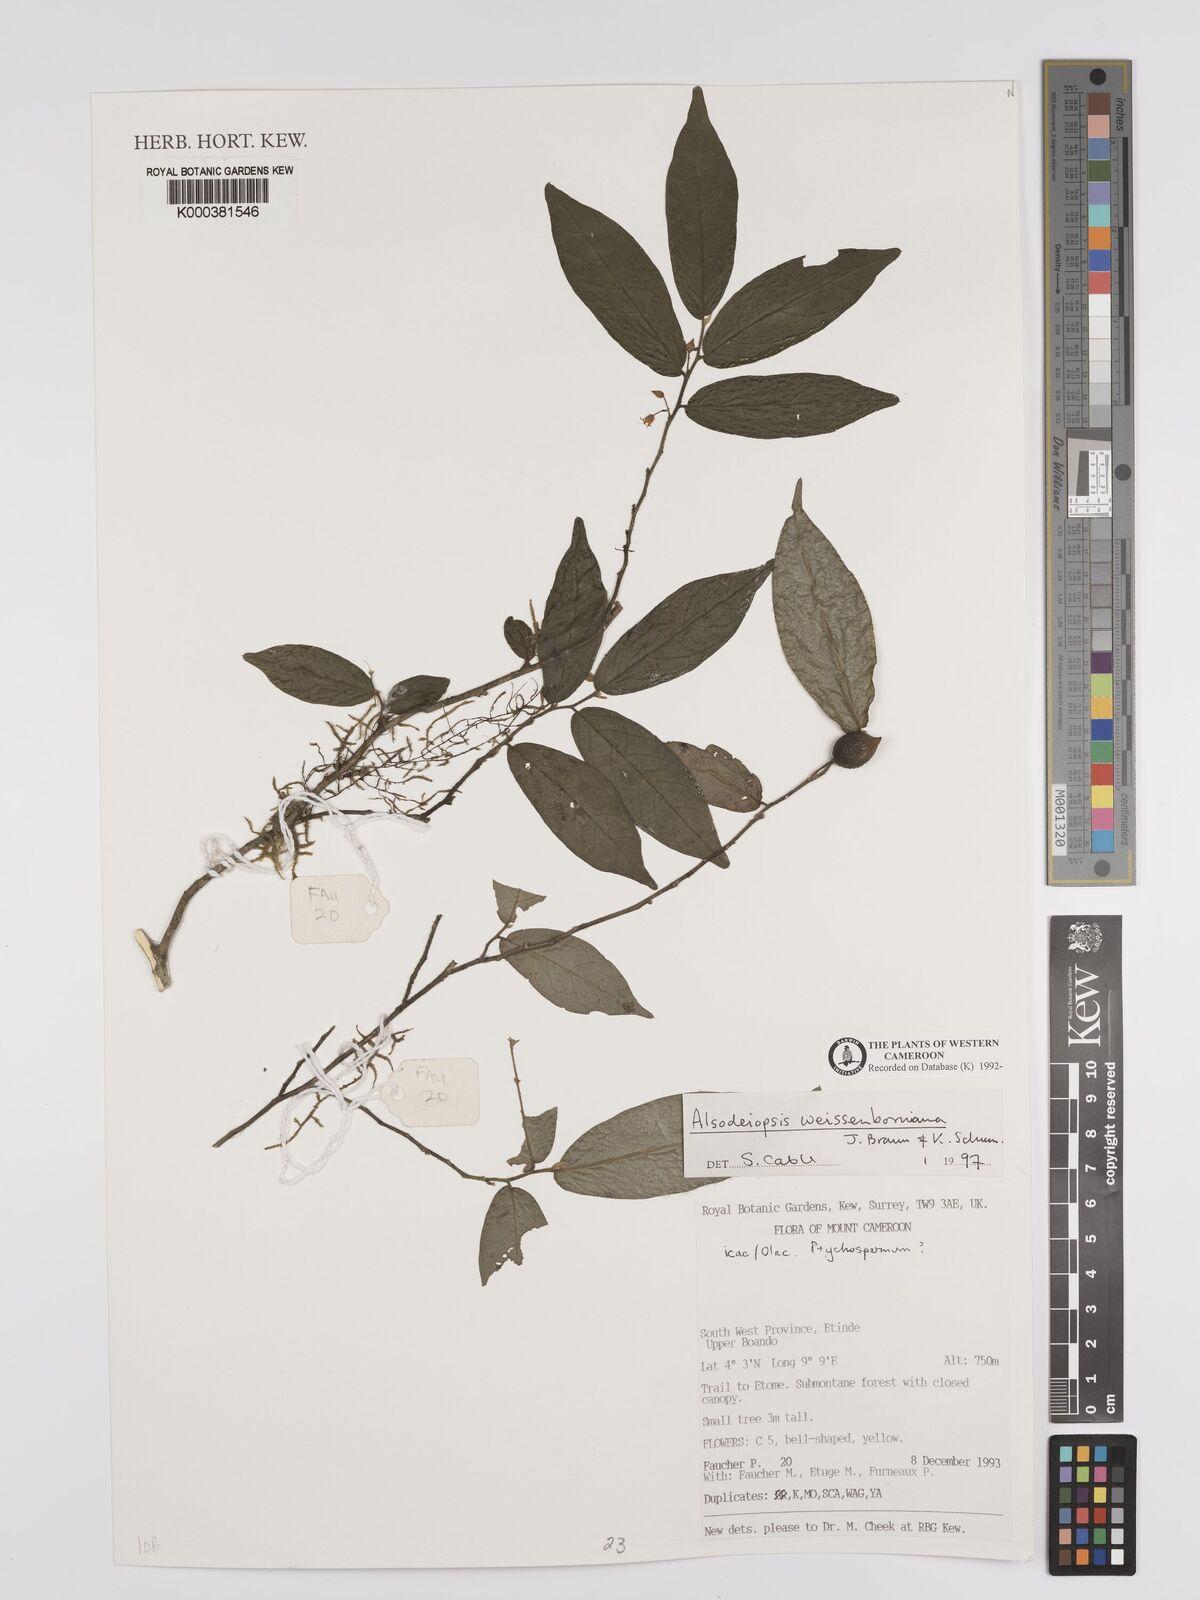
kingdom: Plantae
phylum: Tracheophyta
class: Magnoliopsida
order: Icacinales
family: Icacinaceae
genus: Alsodeiopsis
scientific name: Alsodeiopsis mannii
